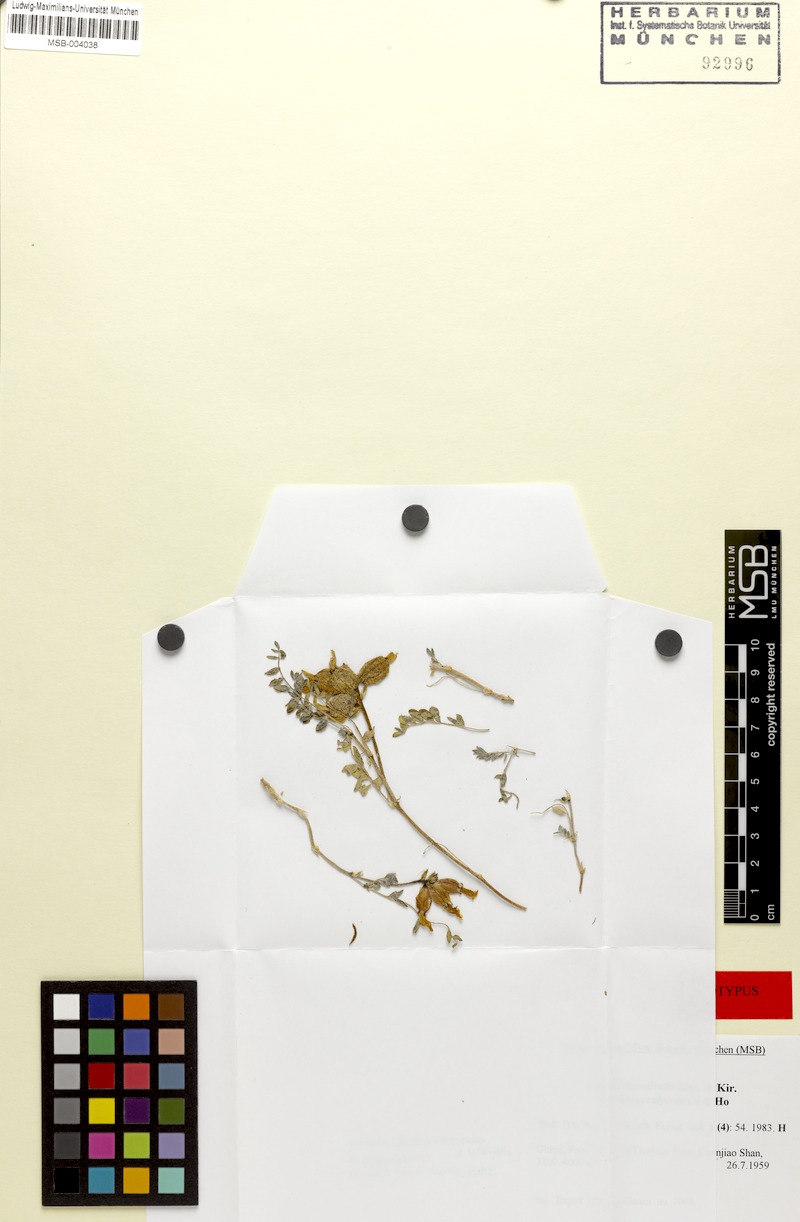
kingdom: Plantae
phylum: Tracheophyta
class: Magnoliopsida
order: Fabales
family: Fabaceae
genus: Astragalus
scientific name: Astragalus kukunoricus
